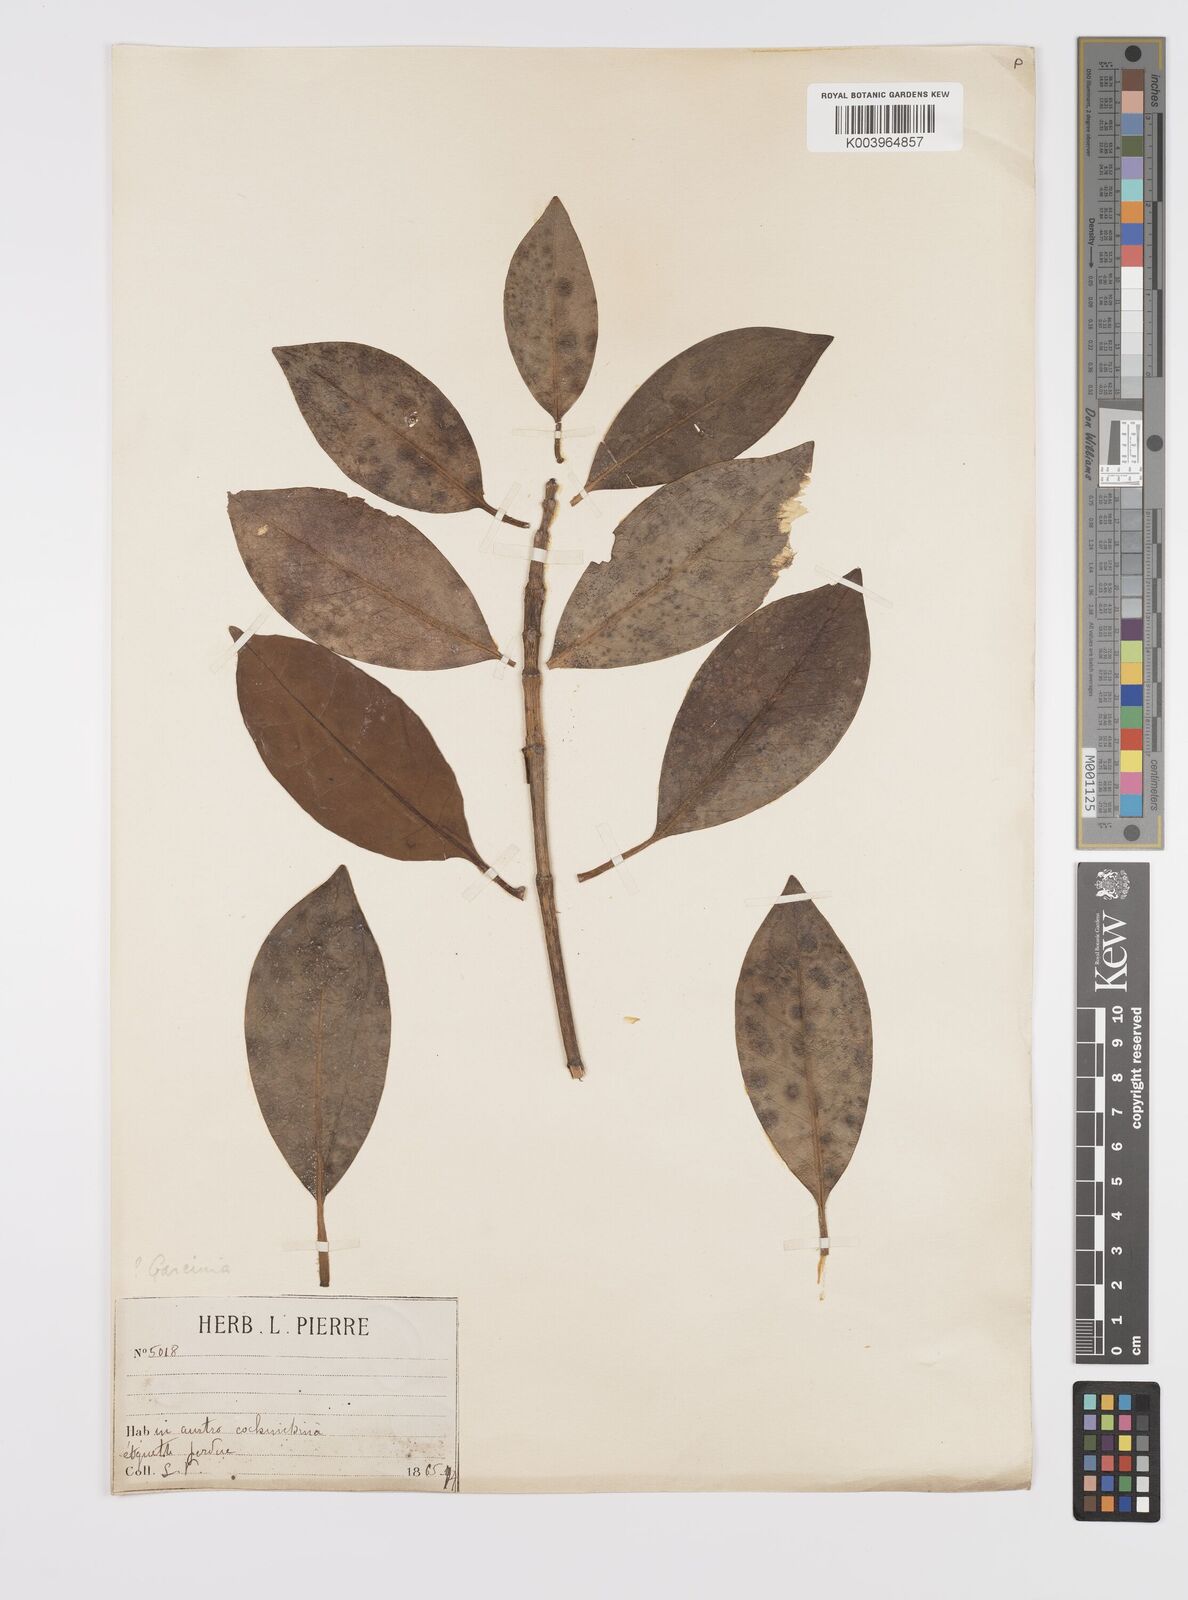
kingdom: Plantae
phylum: Tracheophyta
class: Magnoliopsida
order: Malpighiales
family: Clusiaceae
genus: Garcinia
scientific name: Garcinia
